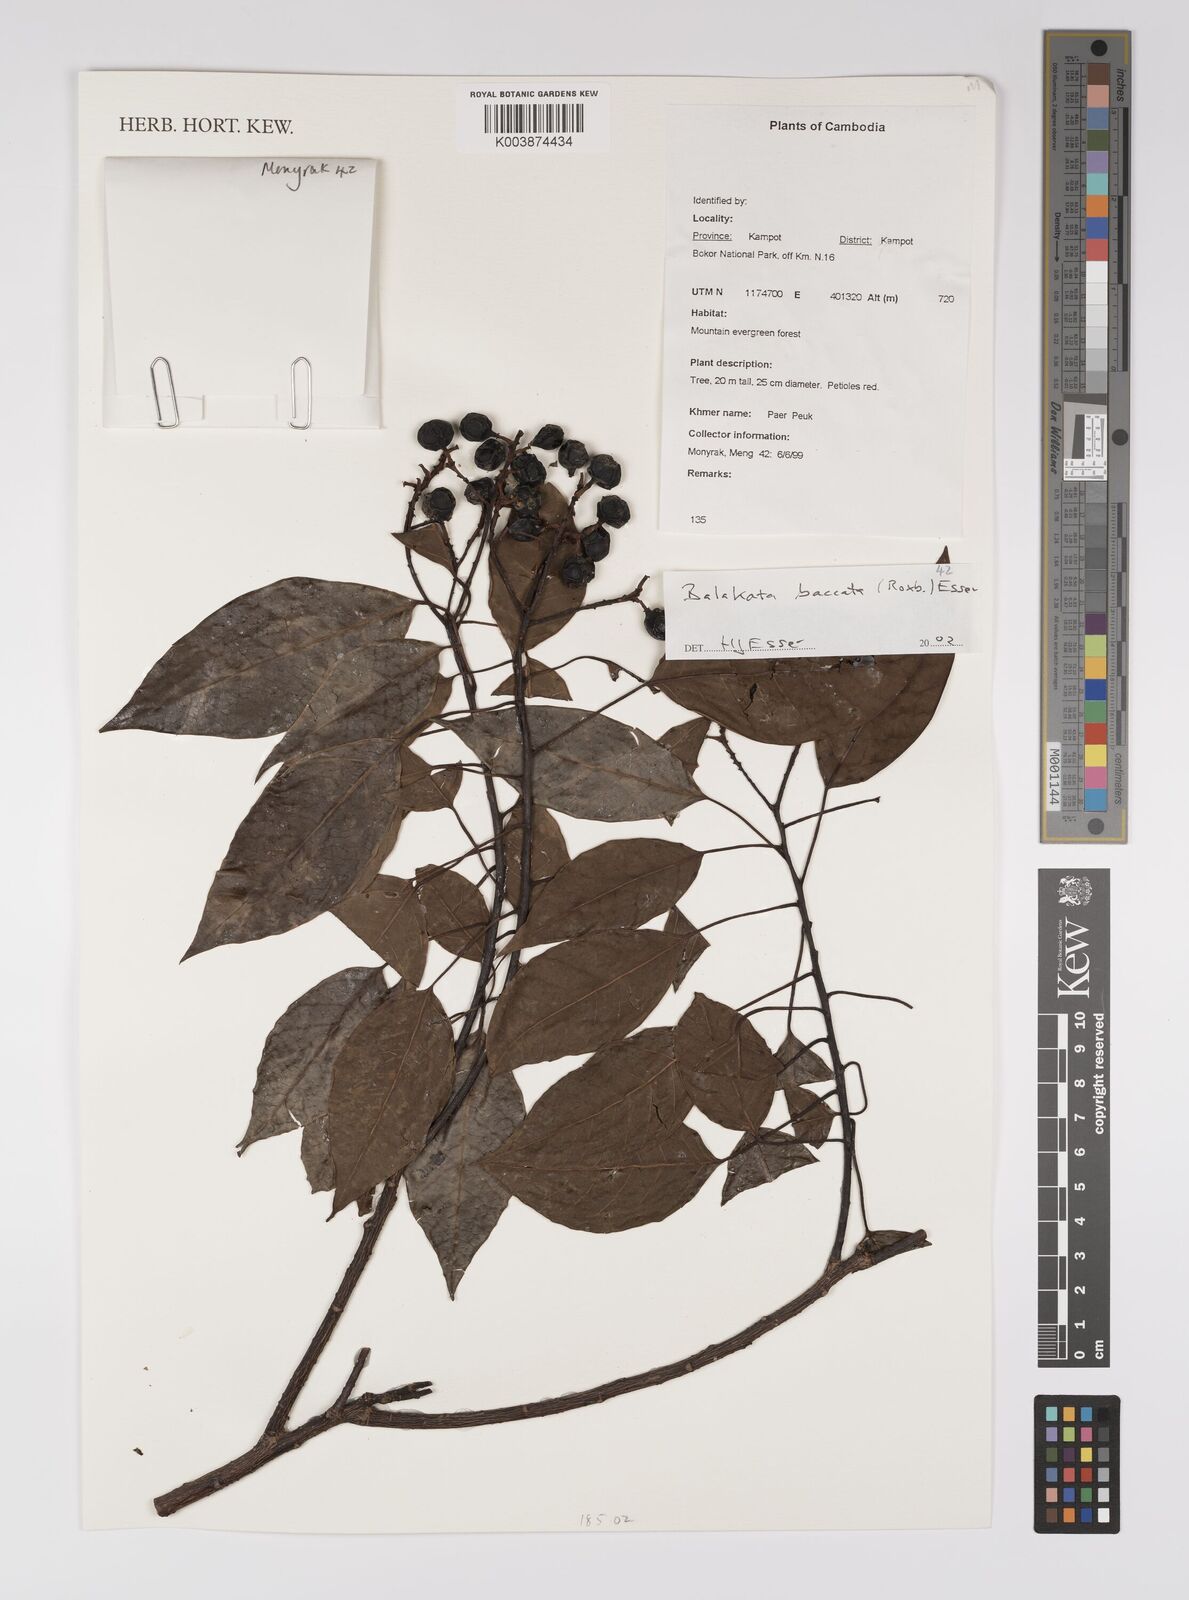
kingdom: Plantae
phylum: Tracheophyta
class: Magnoliopsida
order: Malpighiales
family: Euphorbiaceae
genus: Balakata
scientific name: Balakata baccata
